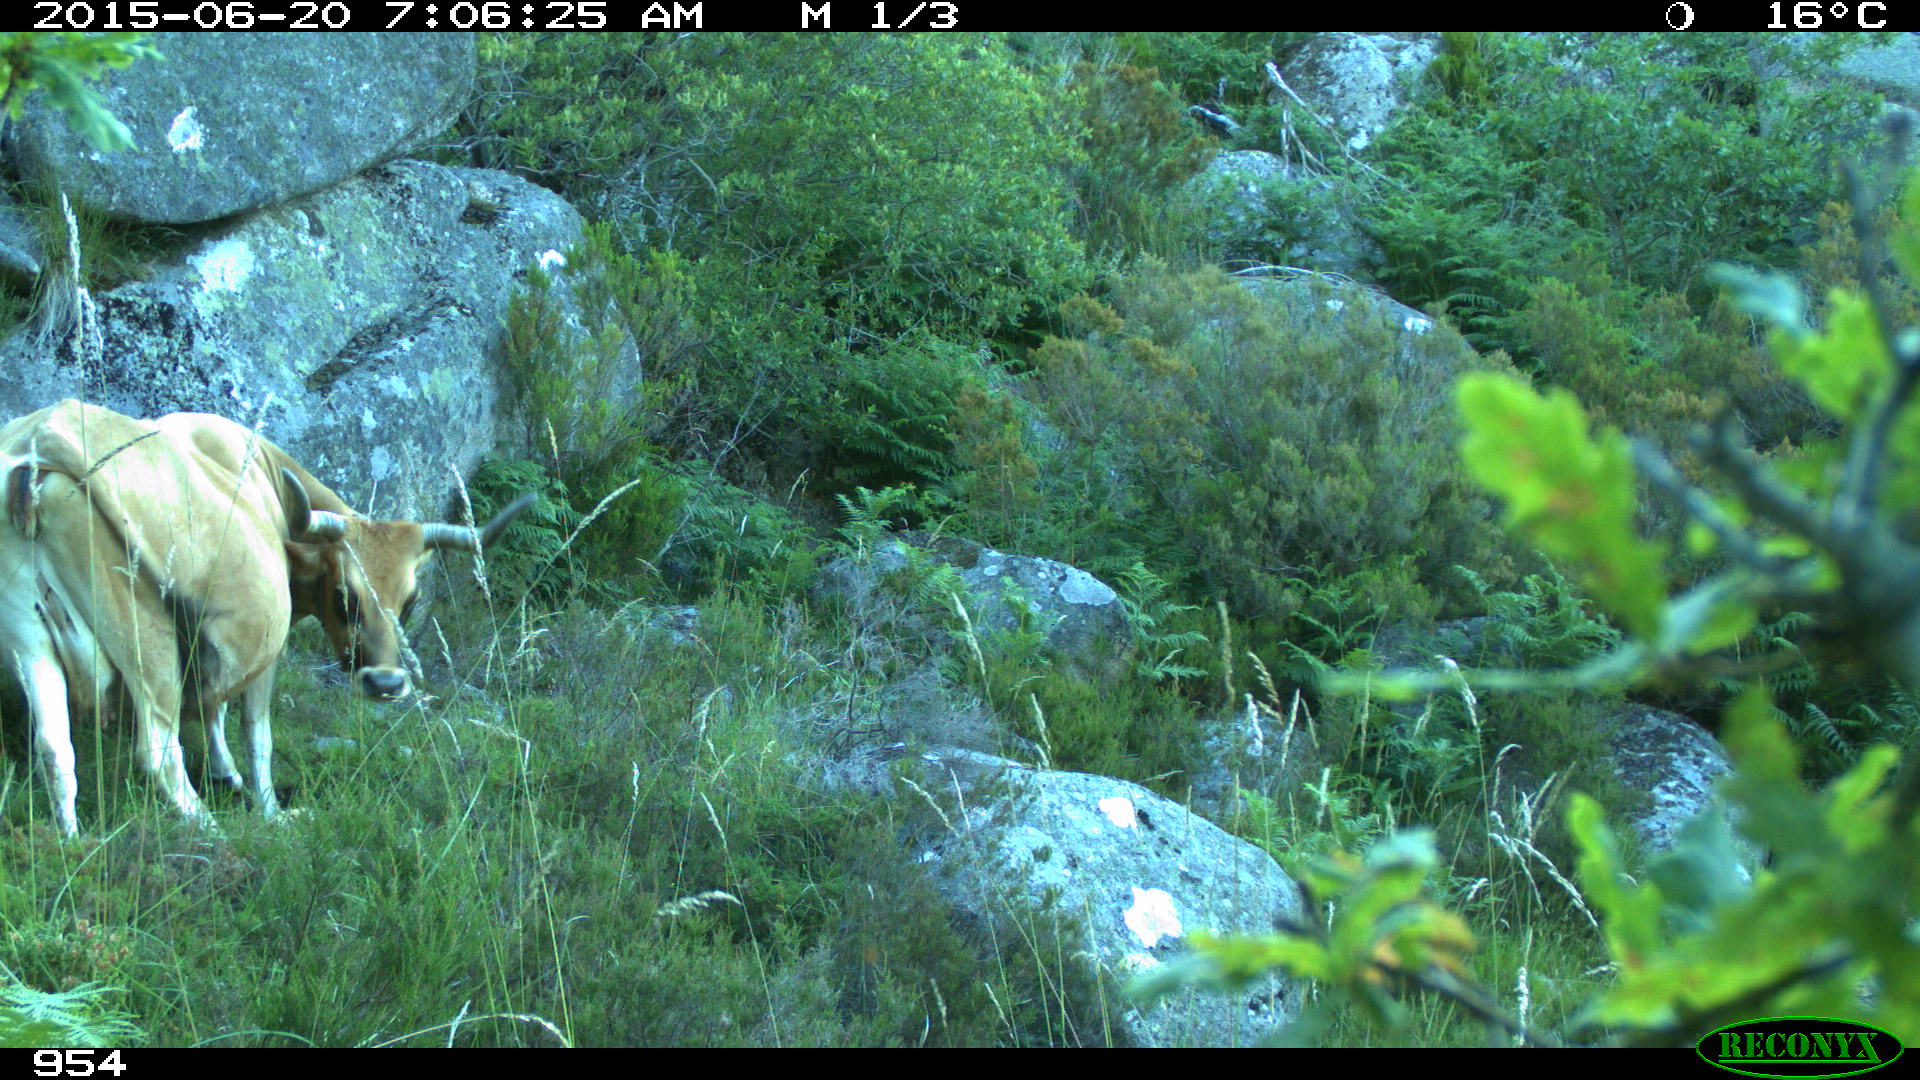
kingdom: Animalia
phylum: Chordata
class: Mammalia
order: Artiodactyla
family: Bovidae
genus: Bos
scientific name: Bos taurus
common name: Domesticated cattle
